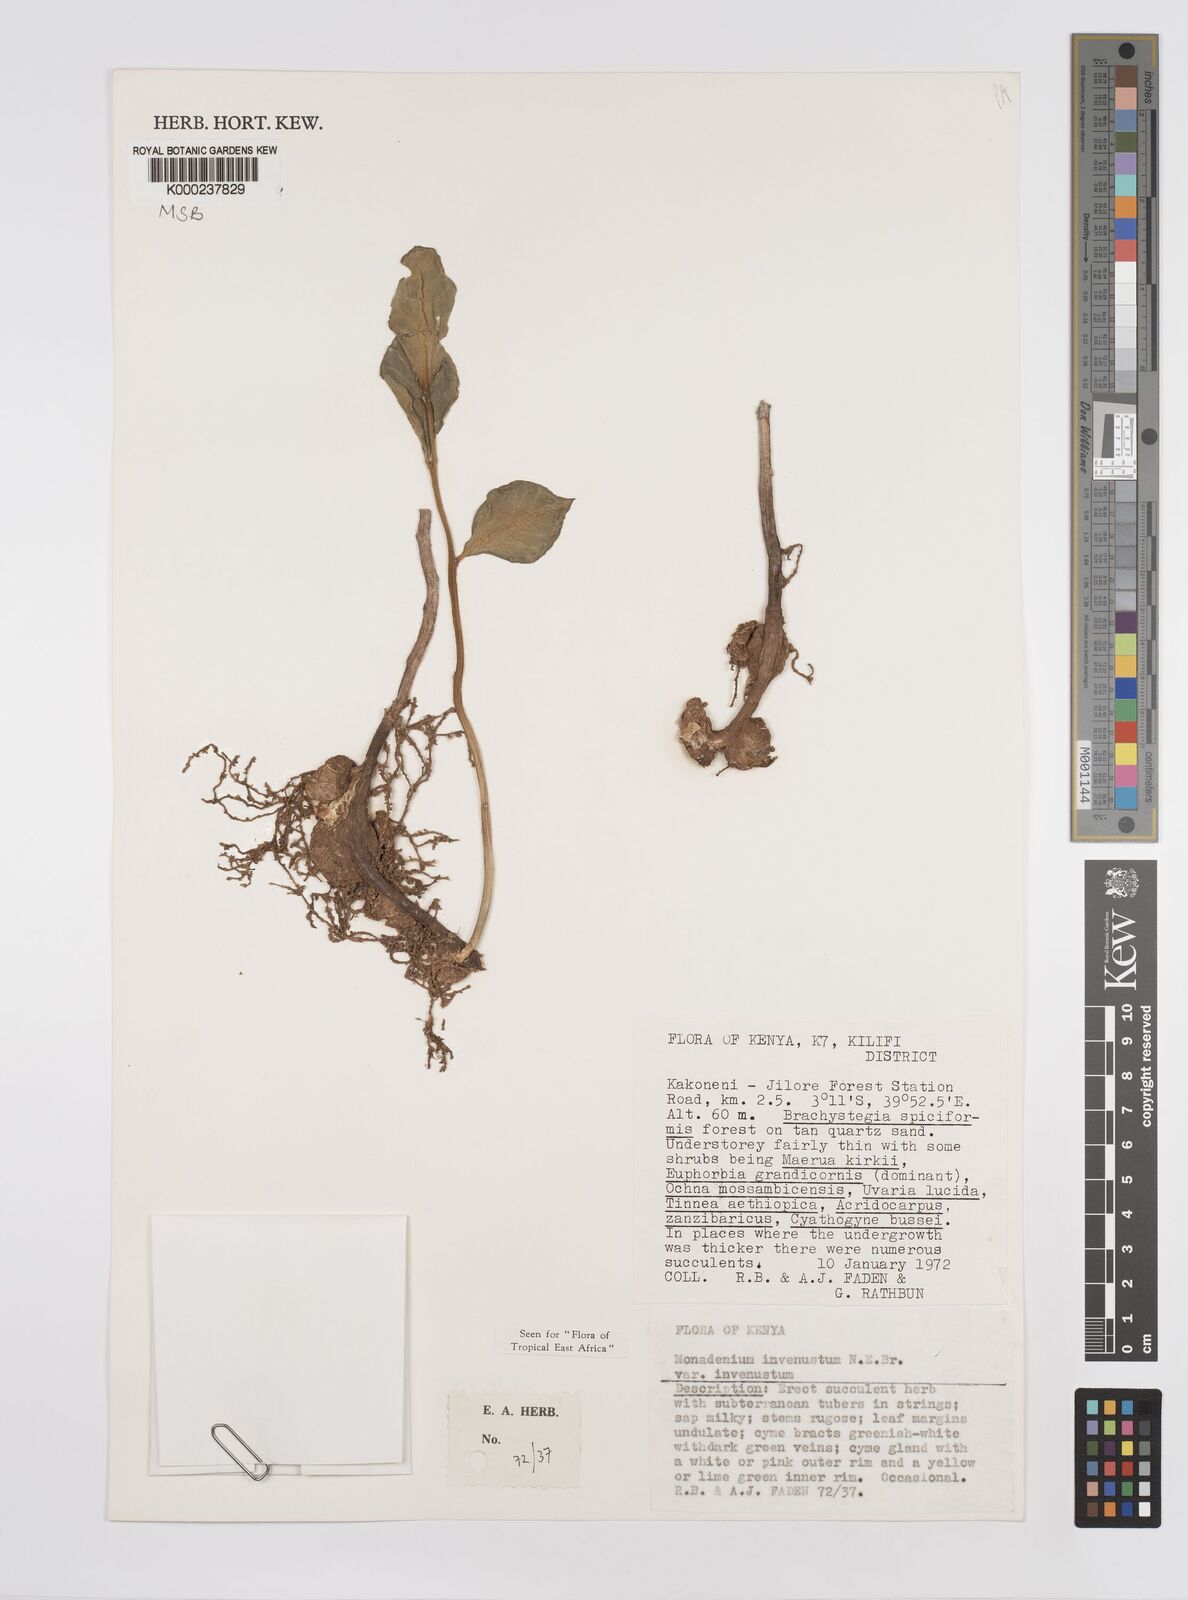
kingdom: Plantae
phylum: Tracheophyta
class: Magnoliopsida
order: Malpighiales
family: Euphorbiaceae
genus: Euphorbia
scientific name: Euphorbia invenusta
